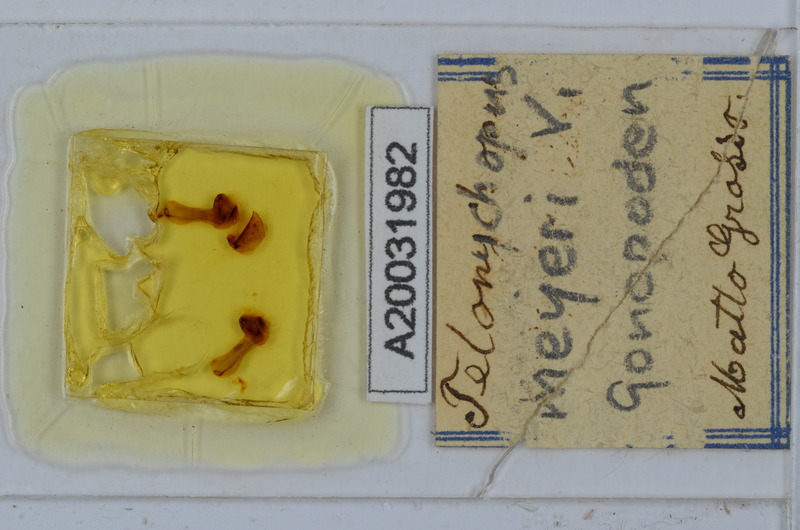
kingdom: Animalia
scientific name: Animalia
